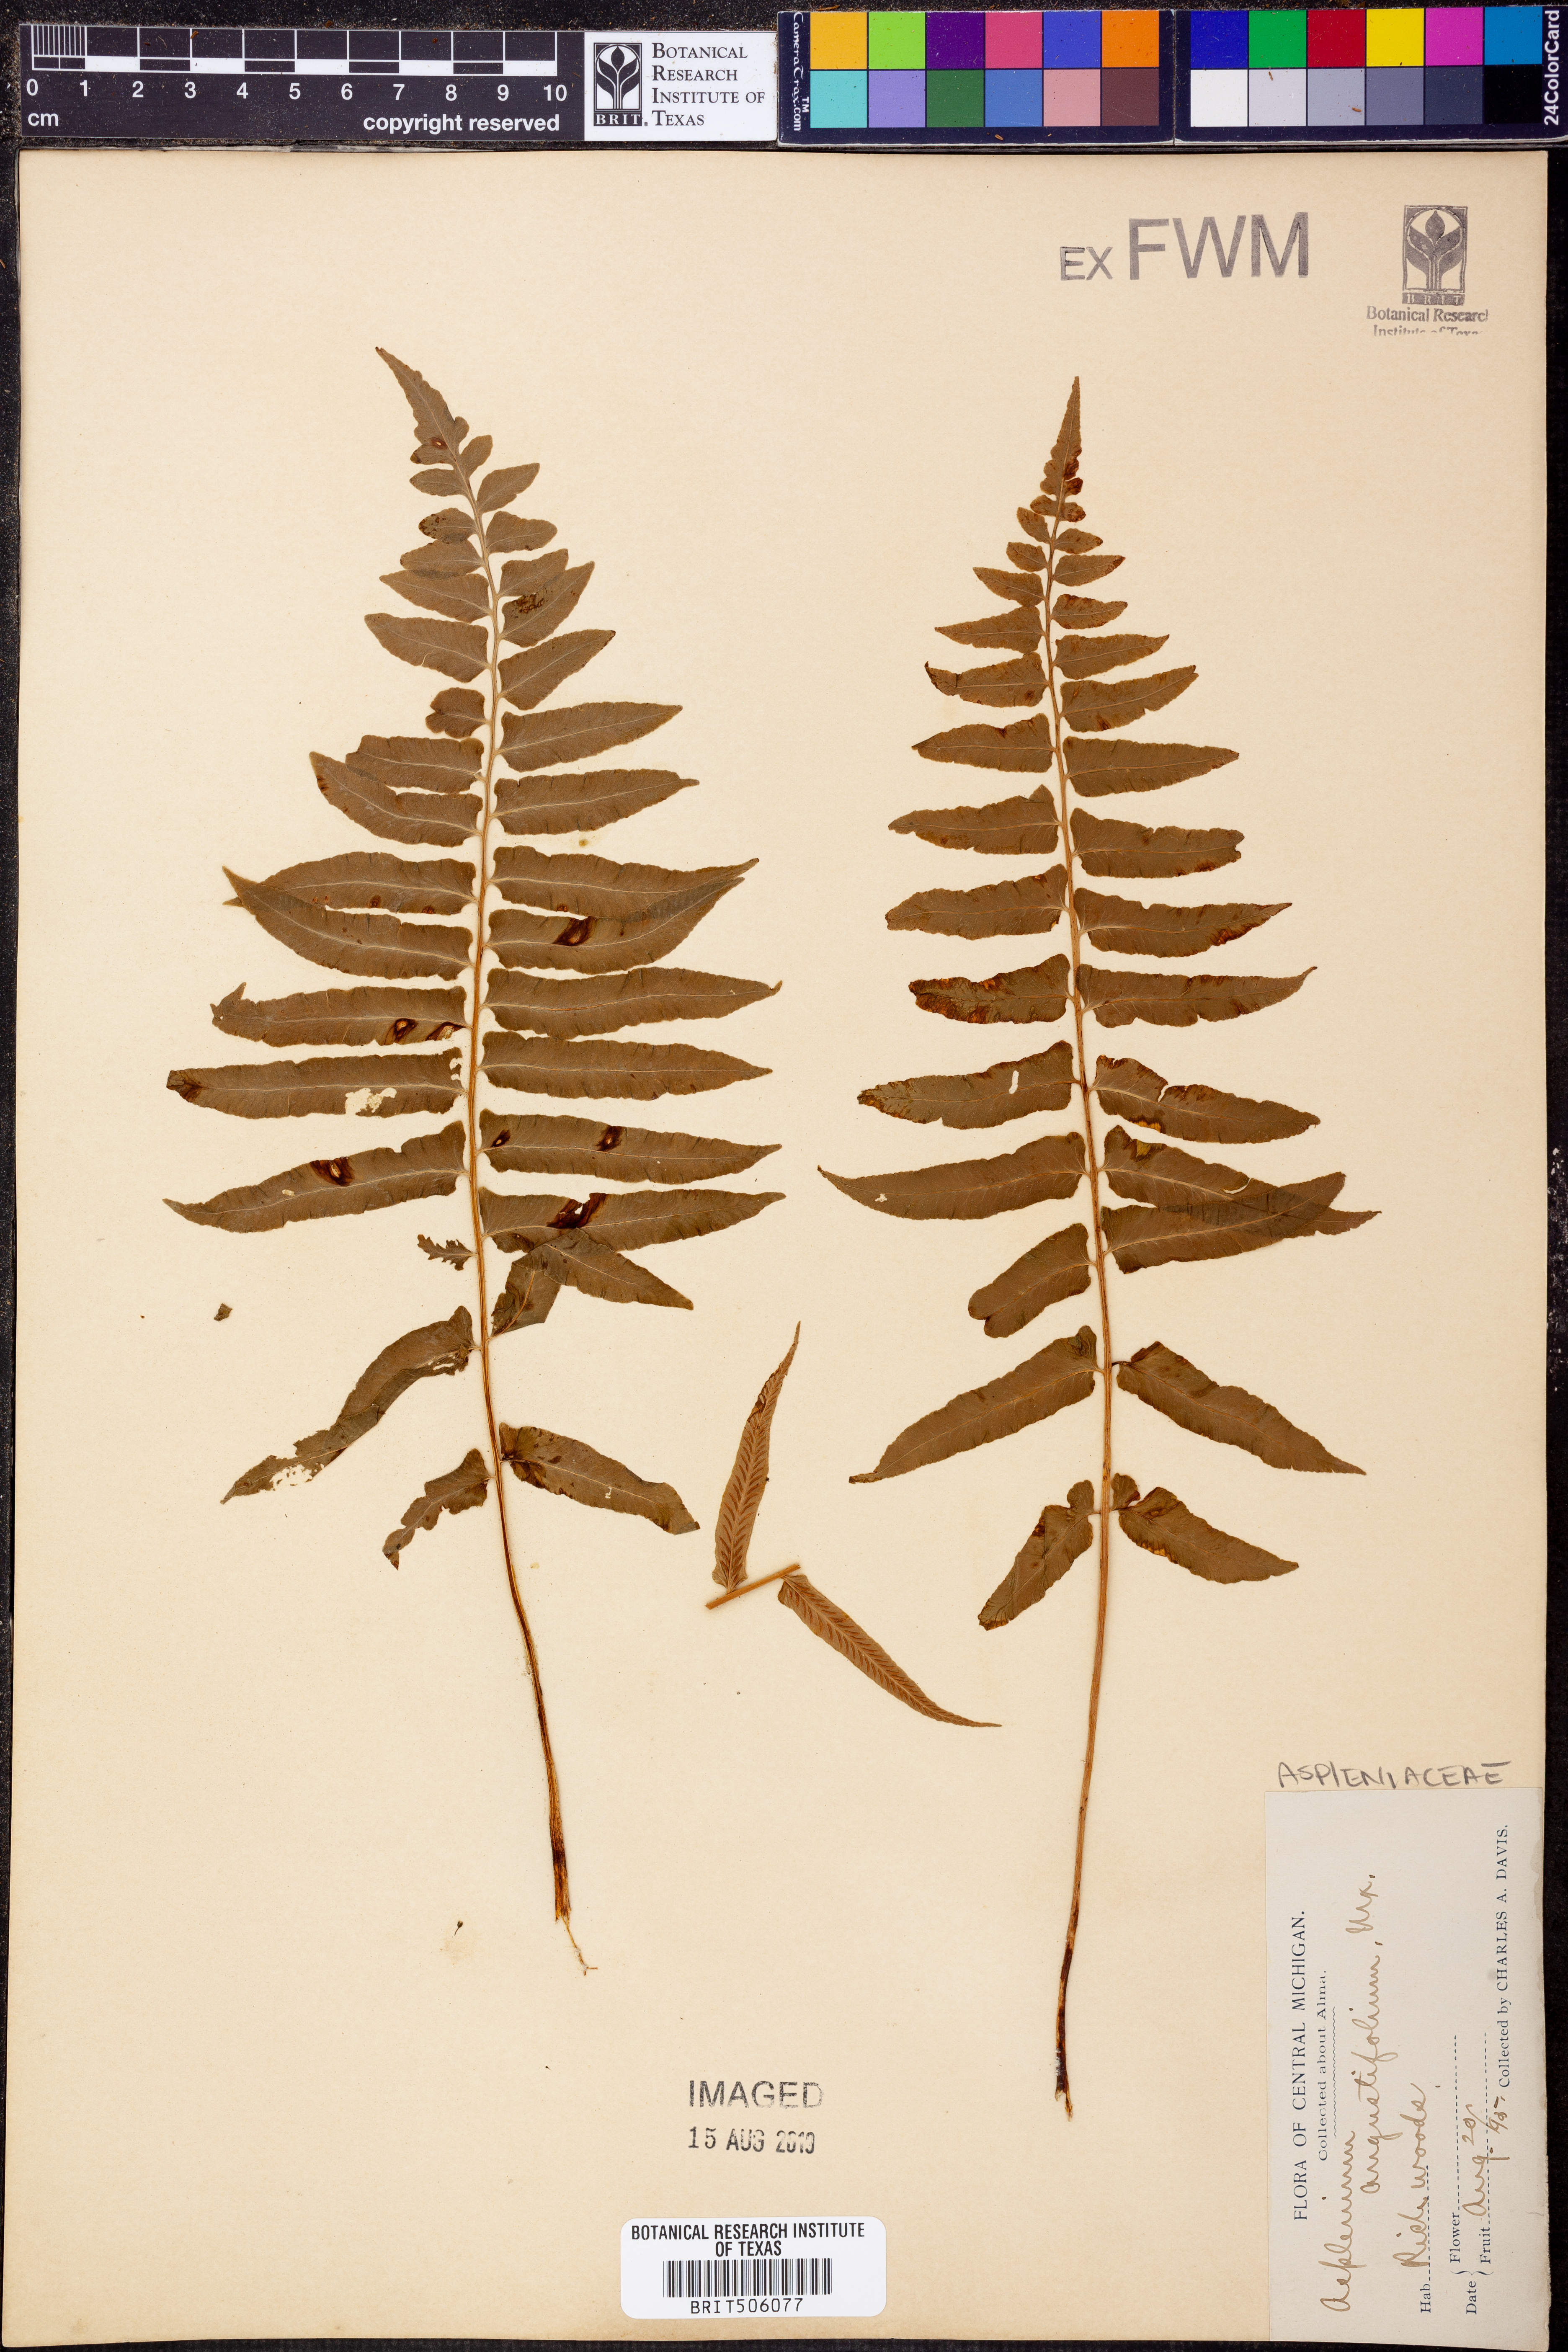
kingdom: Plantae
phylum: Tracheophyta
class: Polypodiopsida
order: Polypodiales
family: Diplaziopsidaceae
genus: Homalosorus
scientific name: Homalosorus pycnocarpos
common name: Glade fern
